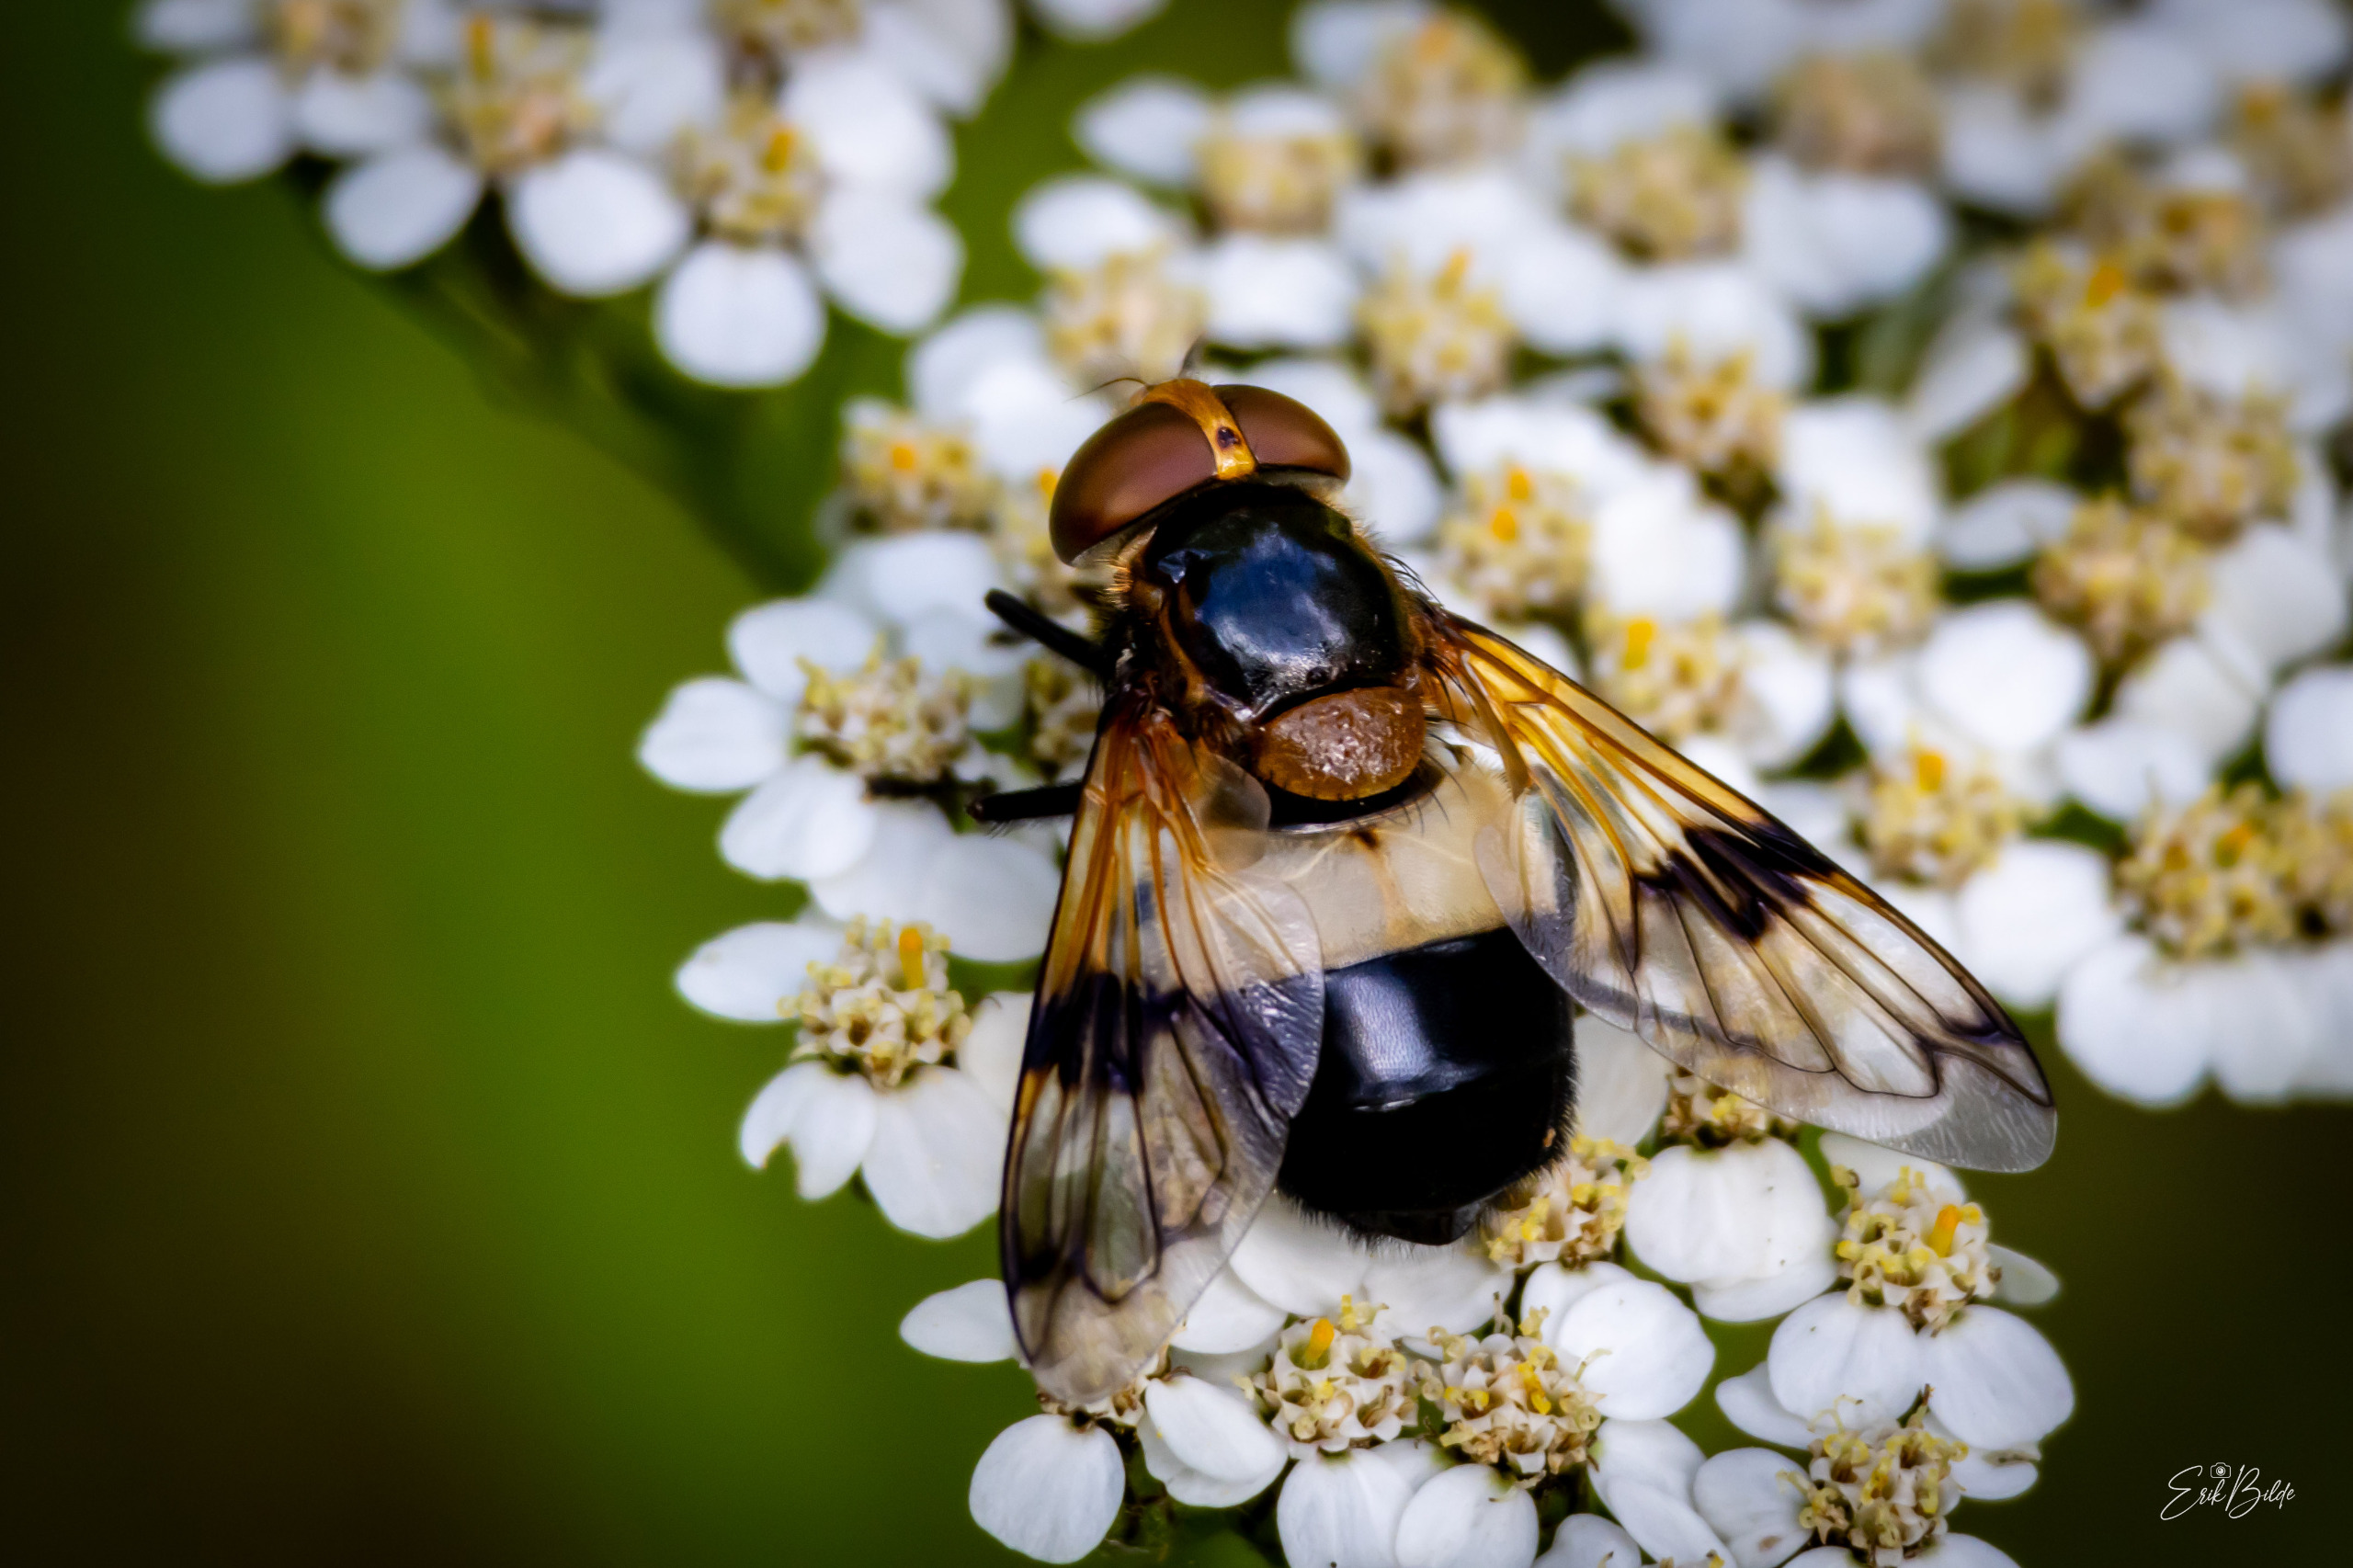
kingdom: Animalia
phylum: Arthropoda
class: Insecta
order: Diptera
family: Syrphidae
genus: Volucella
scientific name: Volucella pellucens
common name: Hvidbåndet humlesvirreflue
